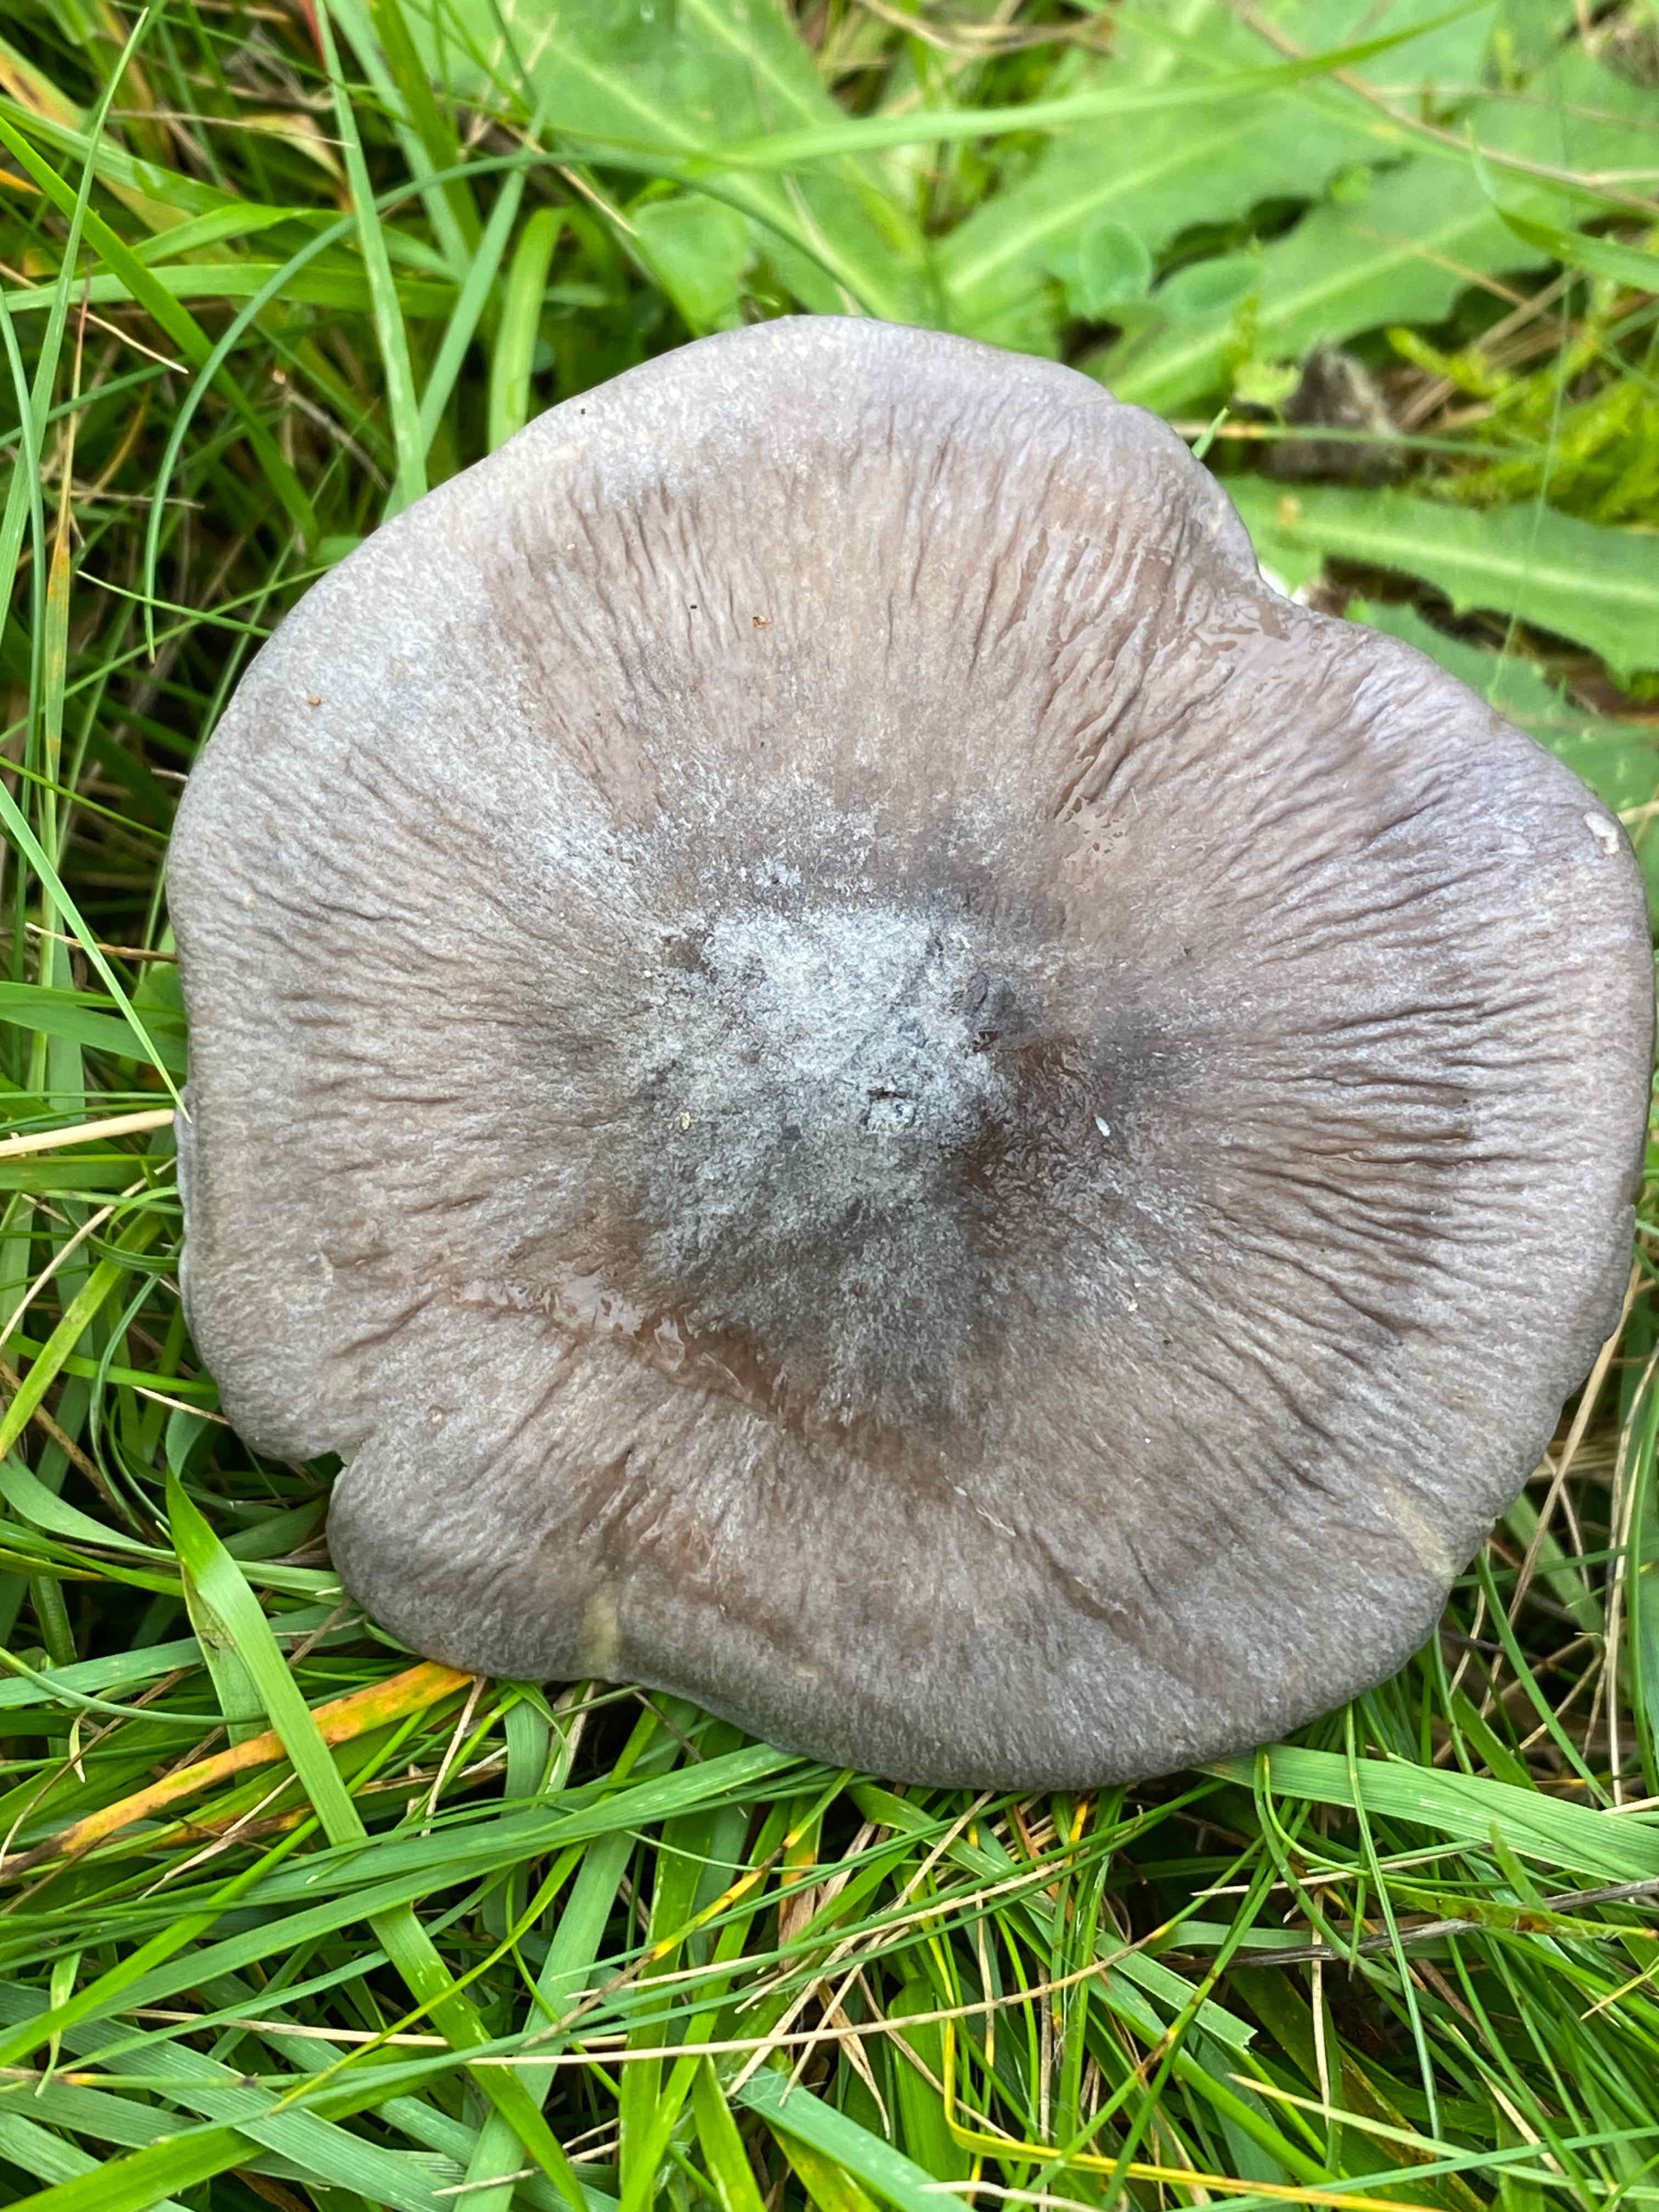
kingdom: Fungi
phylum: Basidiomycota
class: Agaricomycetes
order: Agaricales
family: Entolomataceae
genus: Entoloma
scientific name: Entoloma madidum
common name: indigo-rødblad
